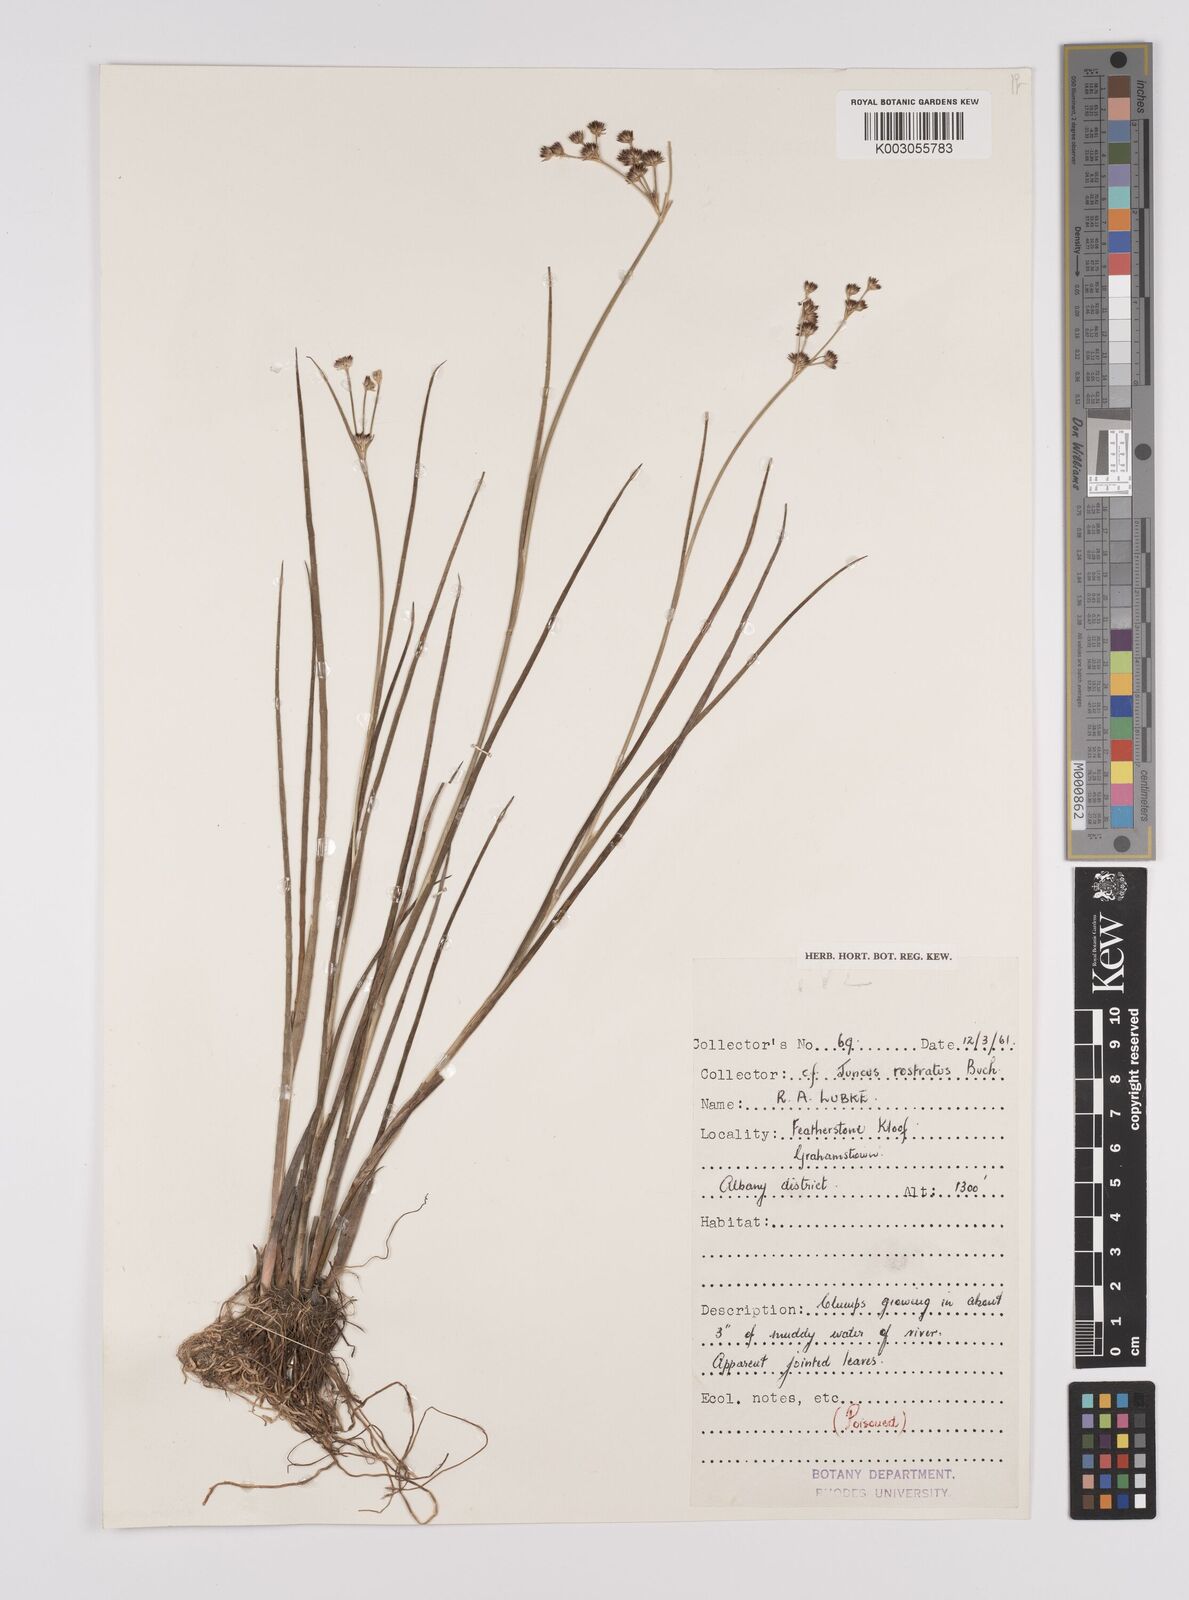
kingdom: Plantae
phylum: Tracheophyta
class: Liliopsida
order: Poales
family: Juncaceae
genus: Juncus
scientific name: Juncus exsertus
